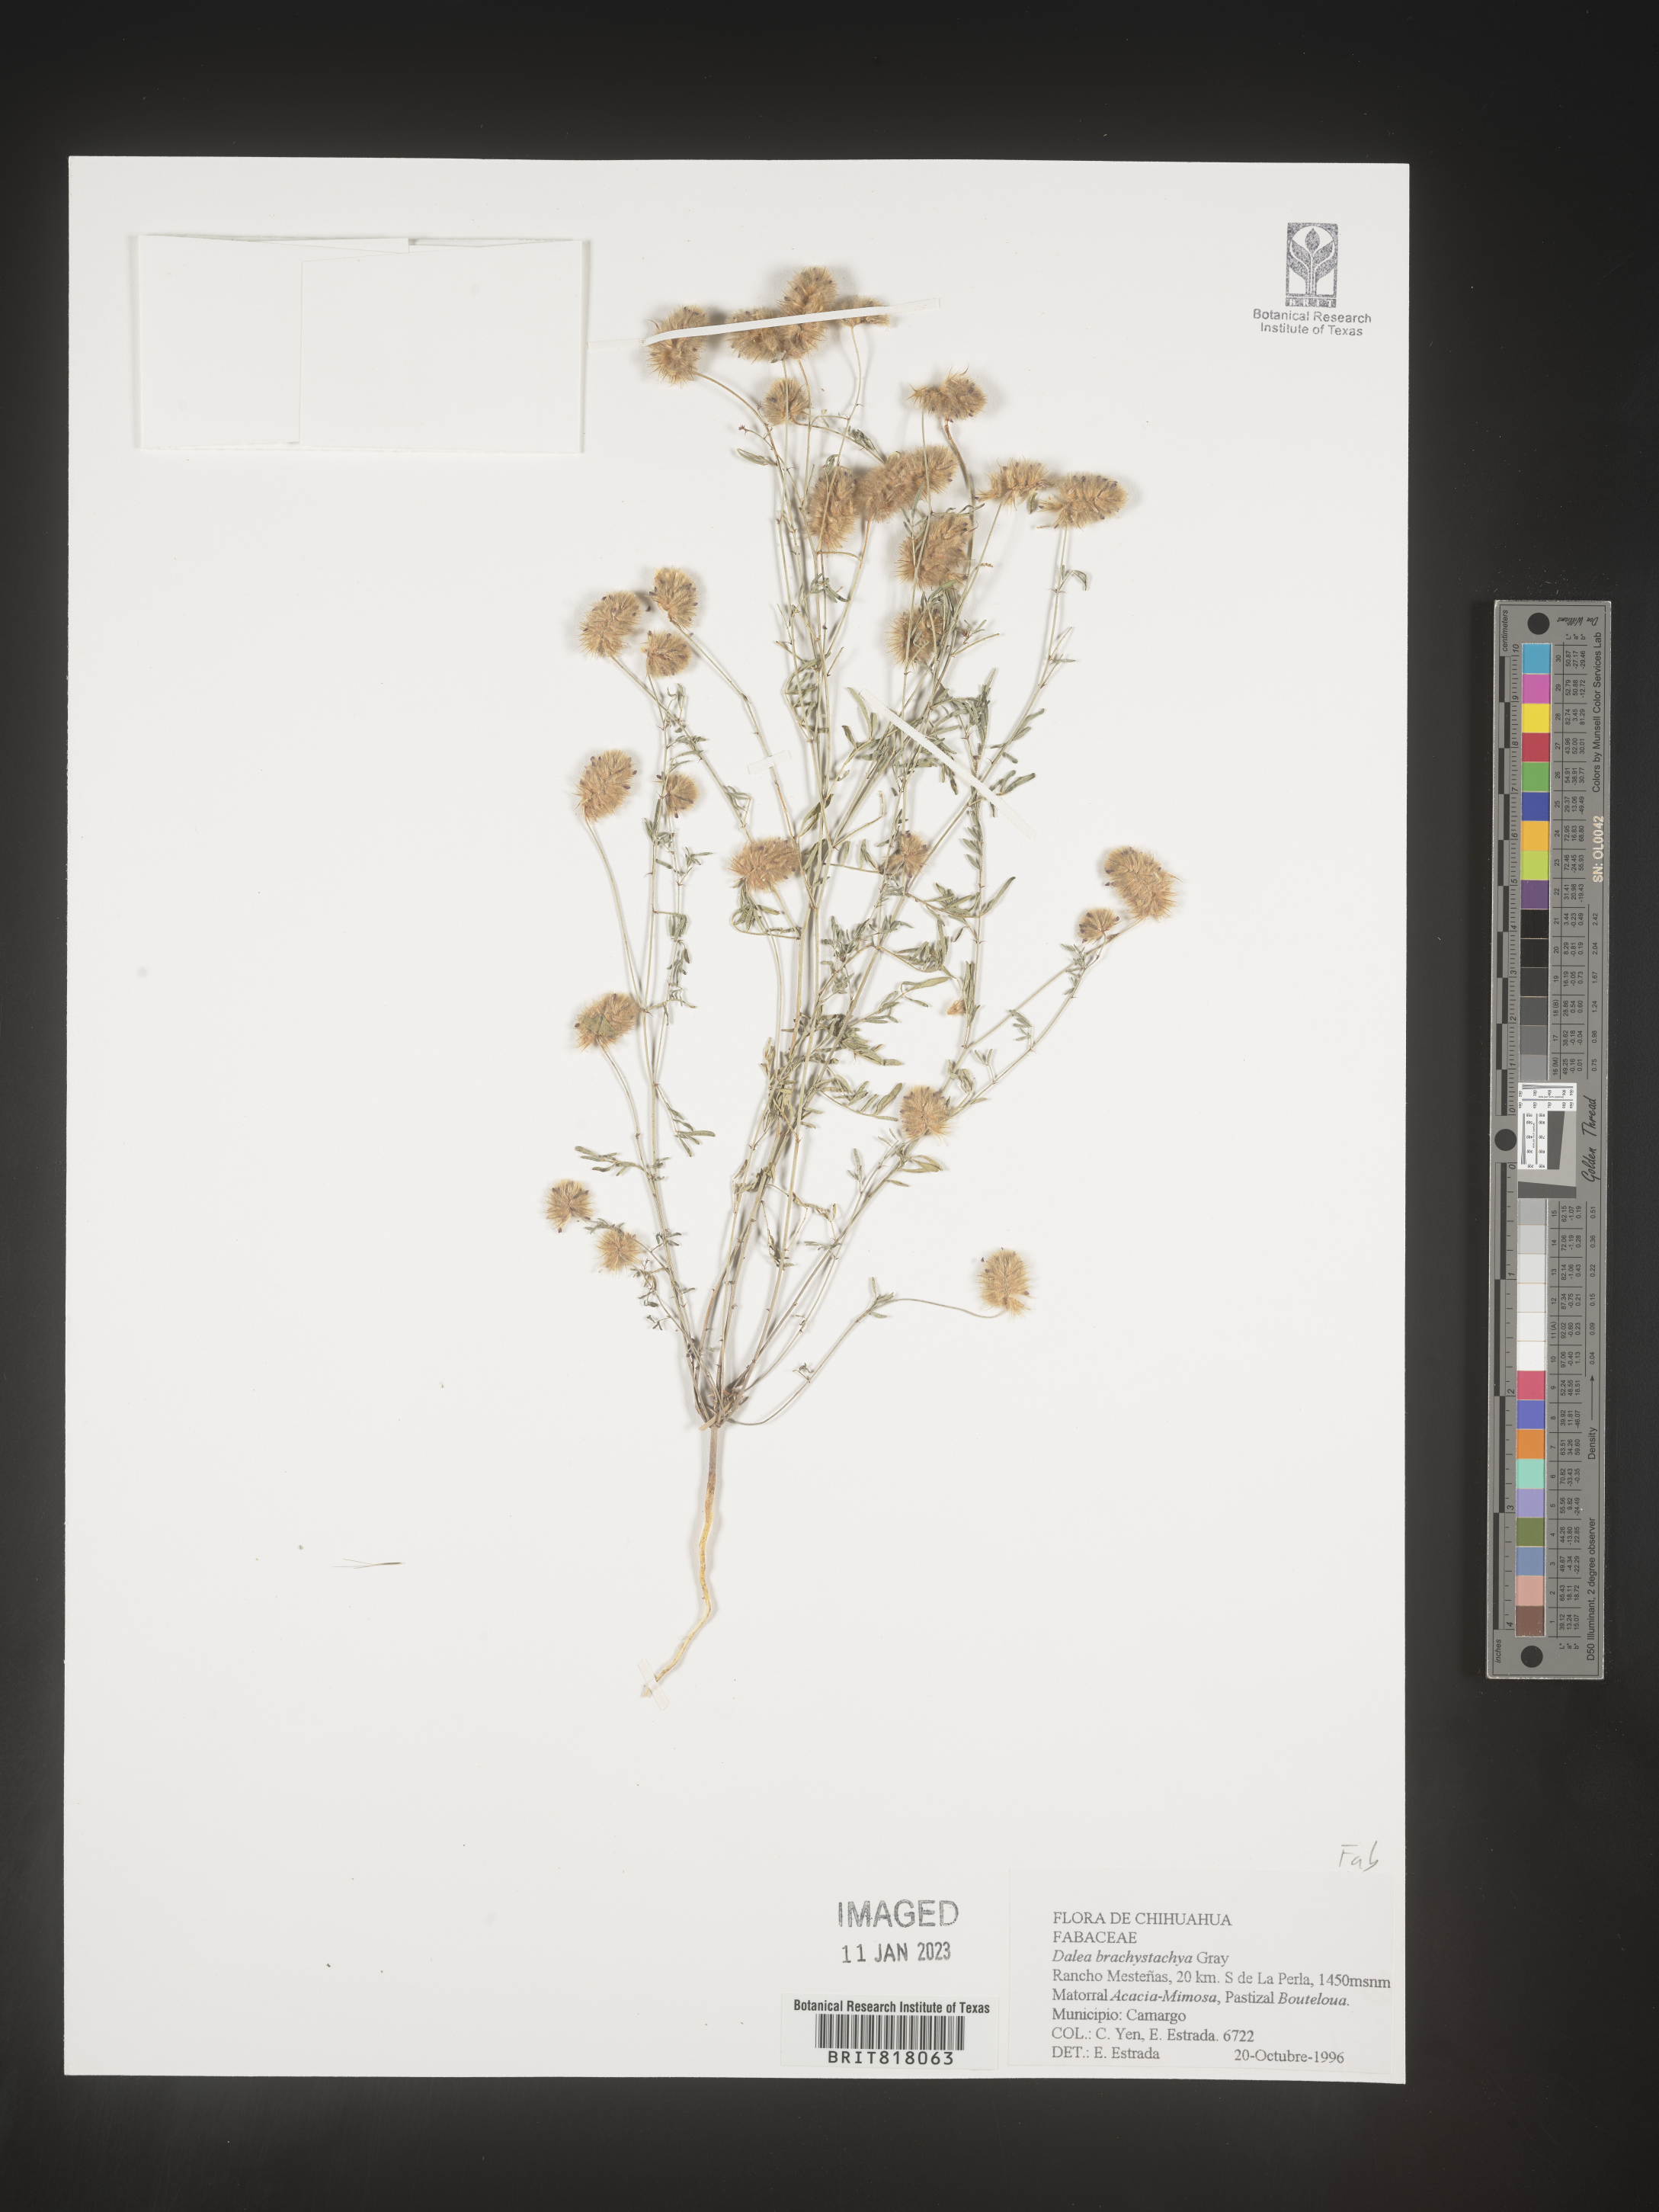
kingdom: Plantae
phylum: Tracheophyta
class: Magnoliopsida
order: Fabales
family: Fabaceae
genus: Dalea
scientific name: Dalea
